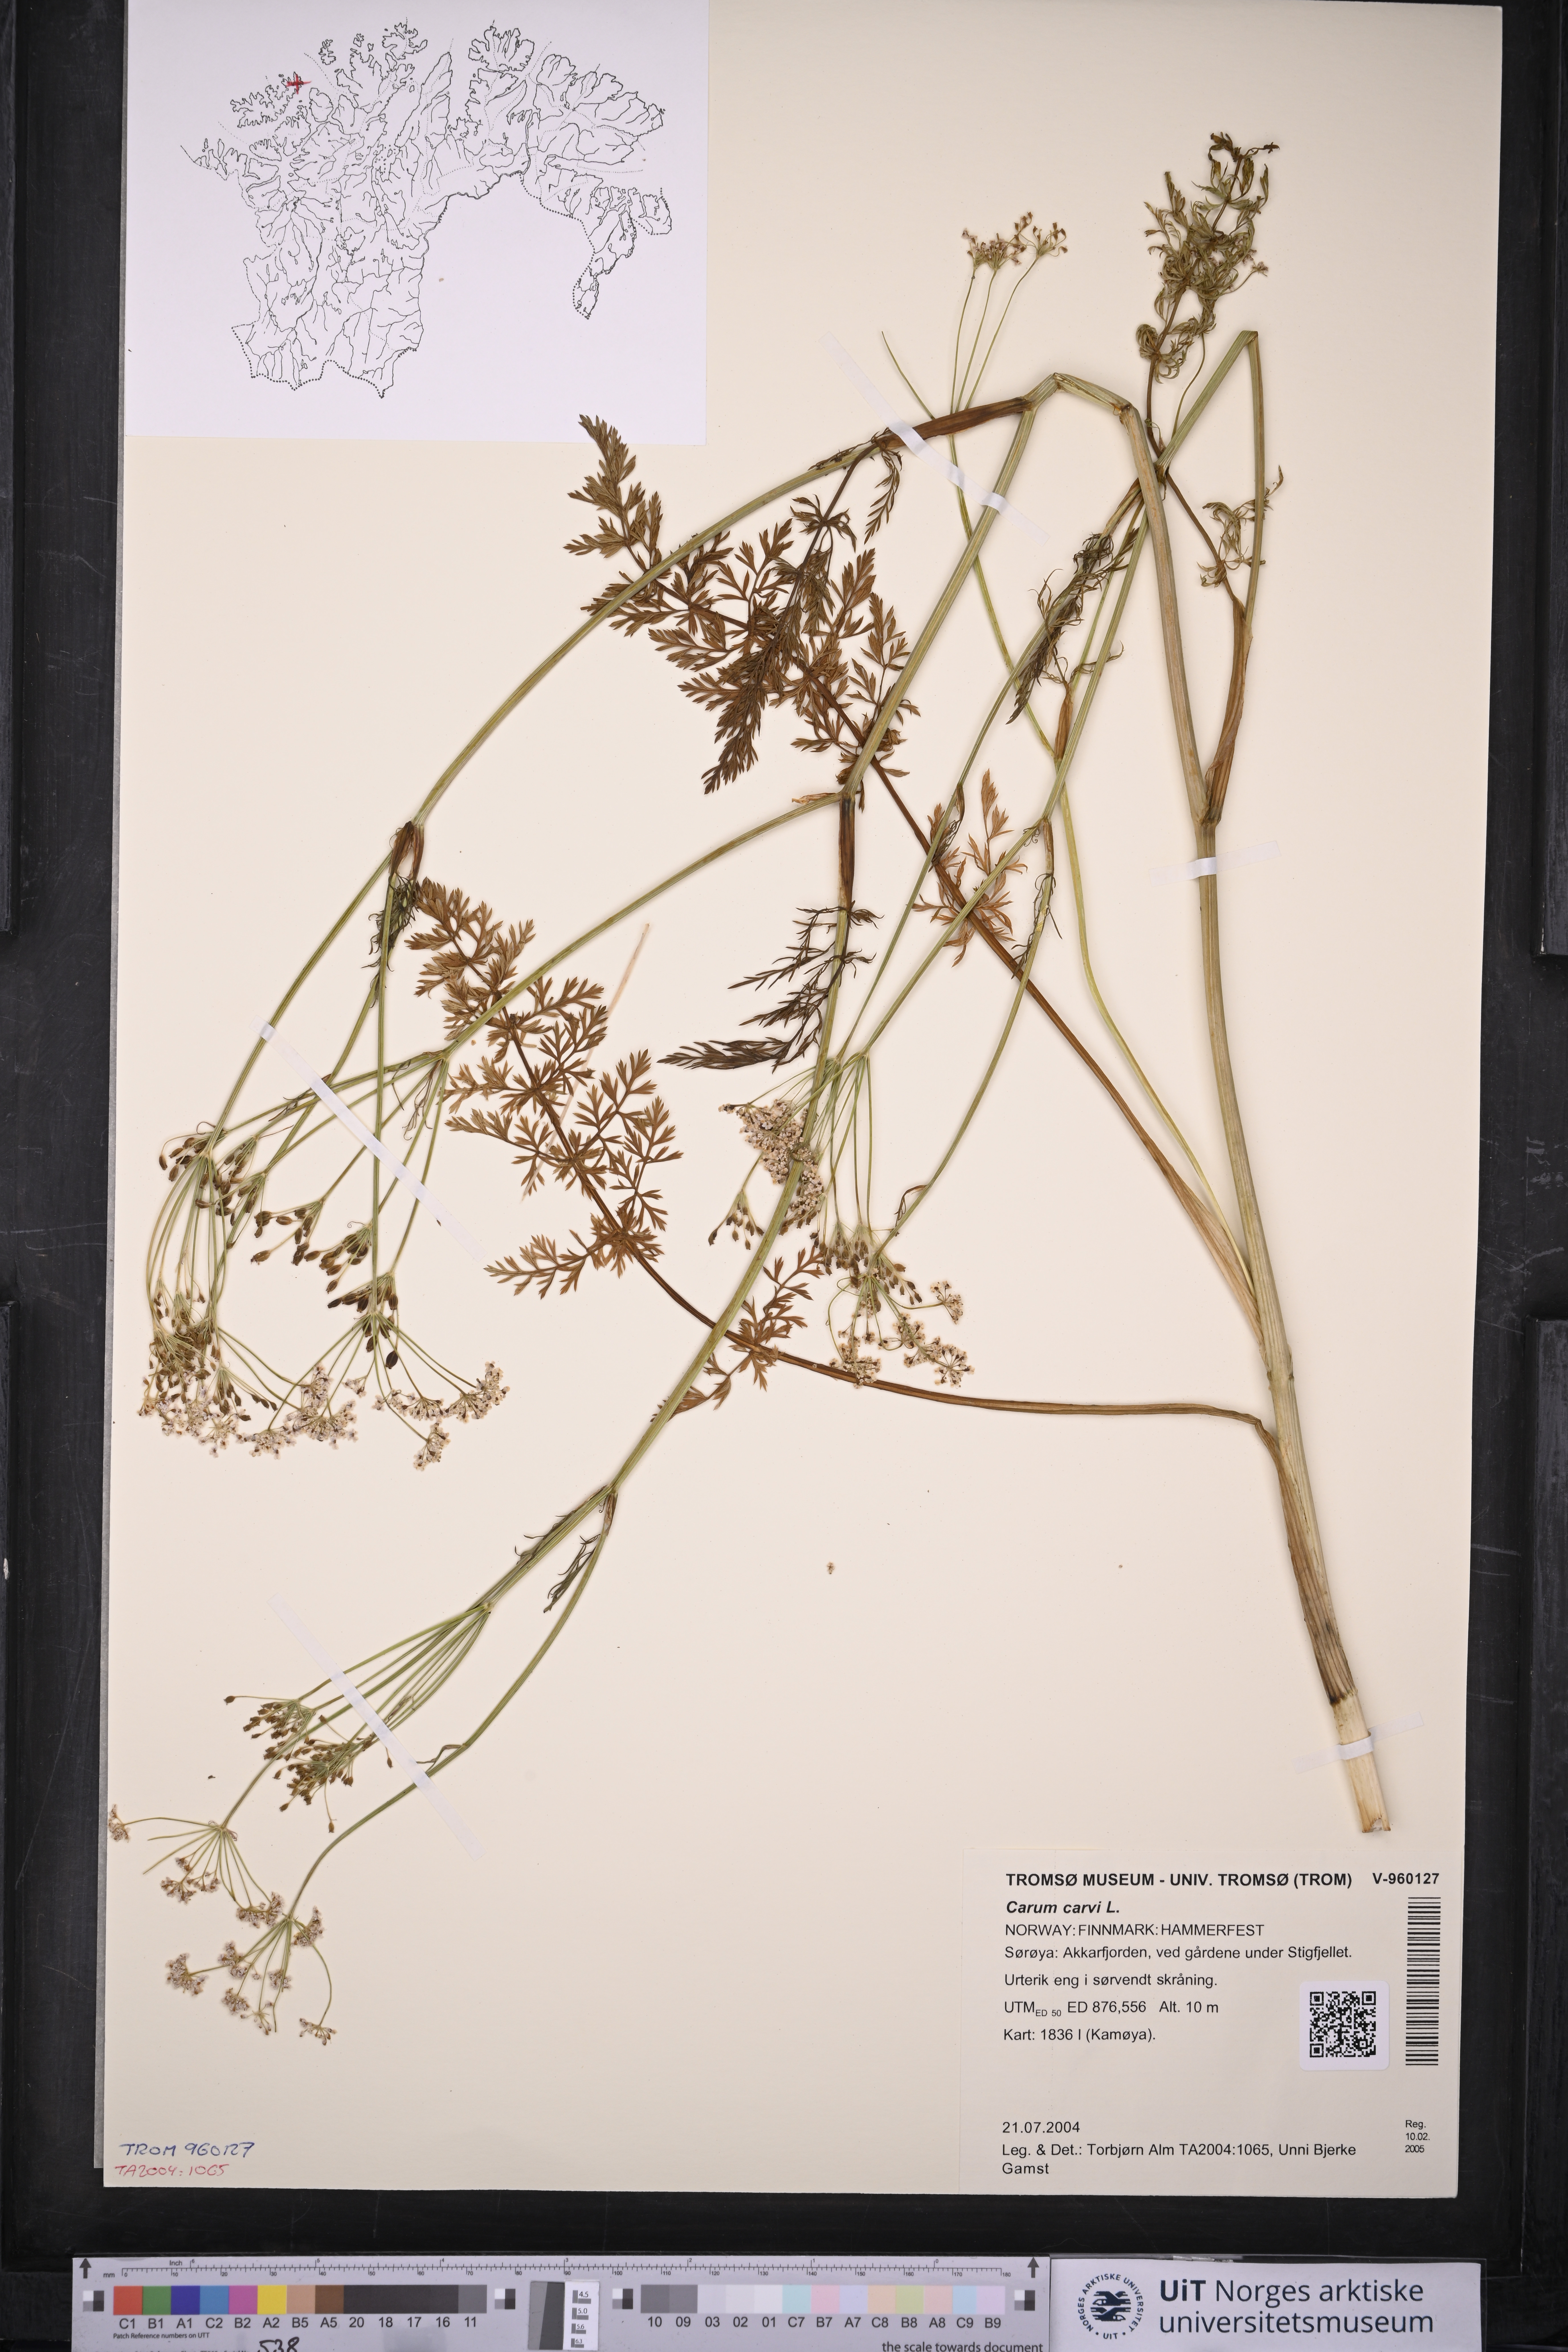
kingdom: Plantae
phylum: Tracheophyta
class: Magnoliopsida
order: Apiales
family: Apiaceae
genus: Carum
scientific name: Carum carvi
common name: Caraway
